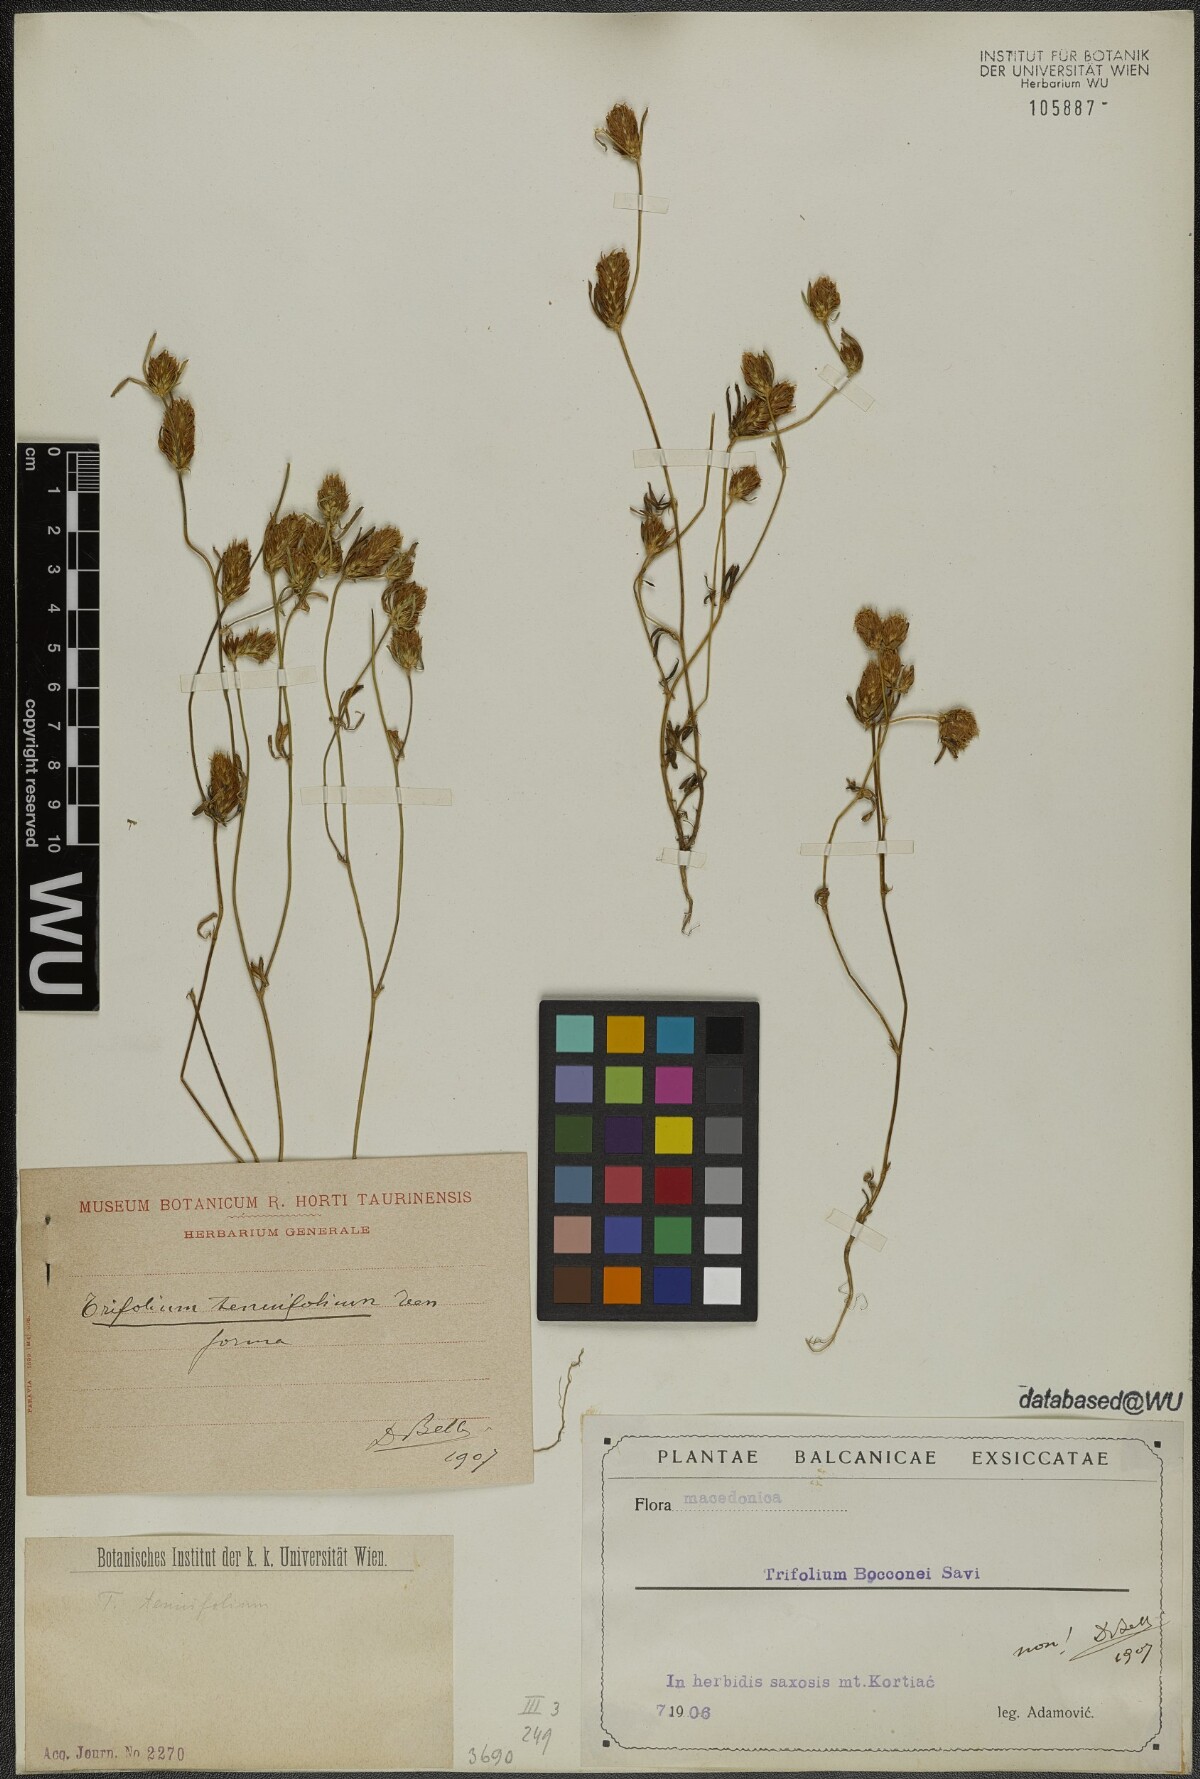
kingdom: Plantae
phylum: Tracheophyta
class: Magnoliopsida
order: Fabales
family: Fabaceae
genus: Trifolium
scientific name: Trifolium tenuifolium
